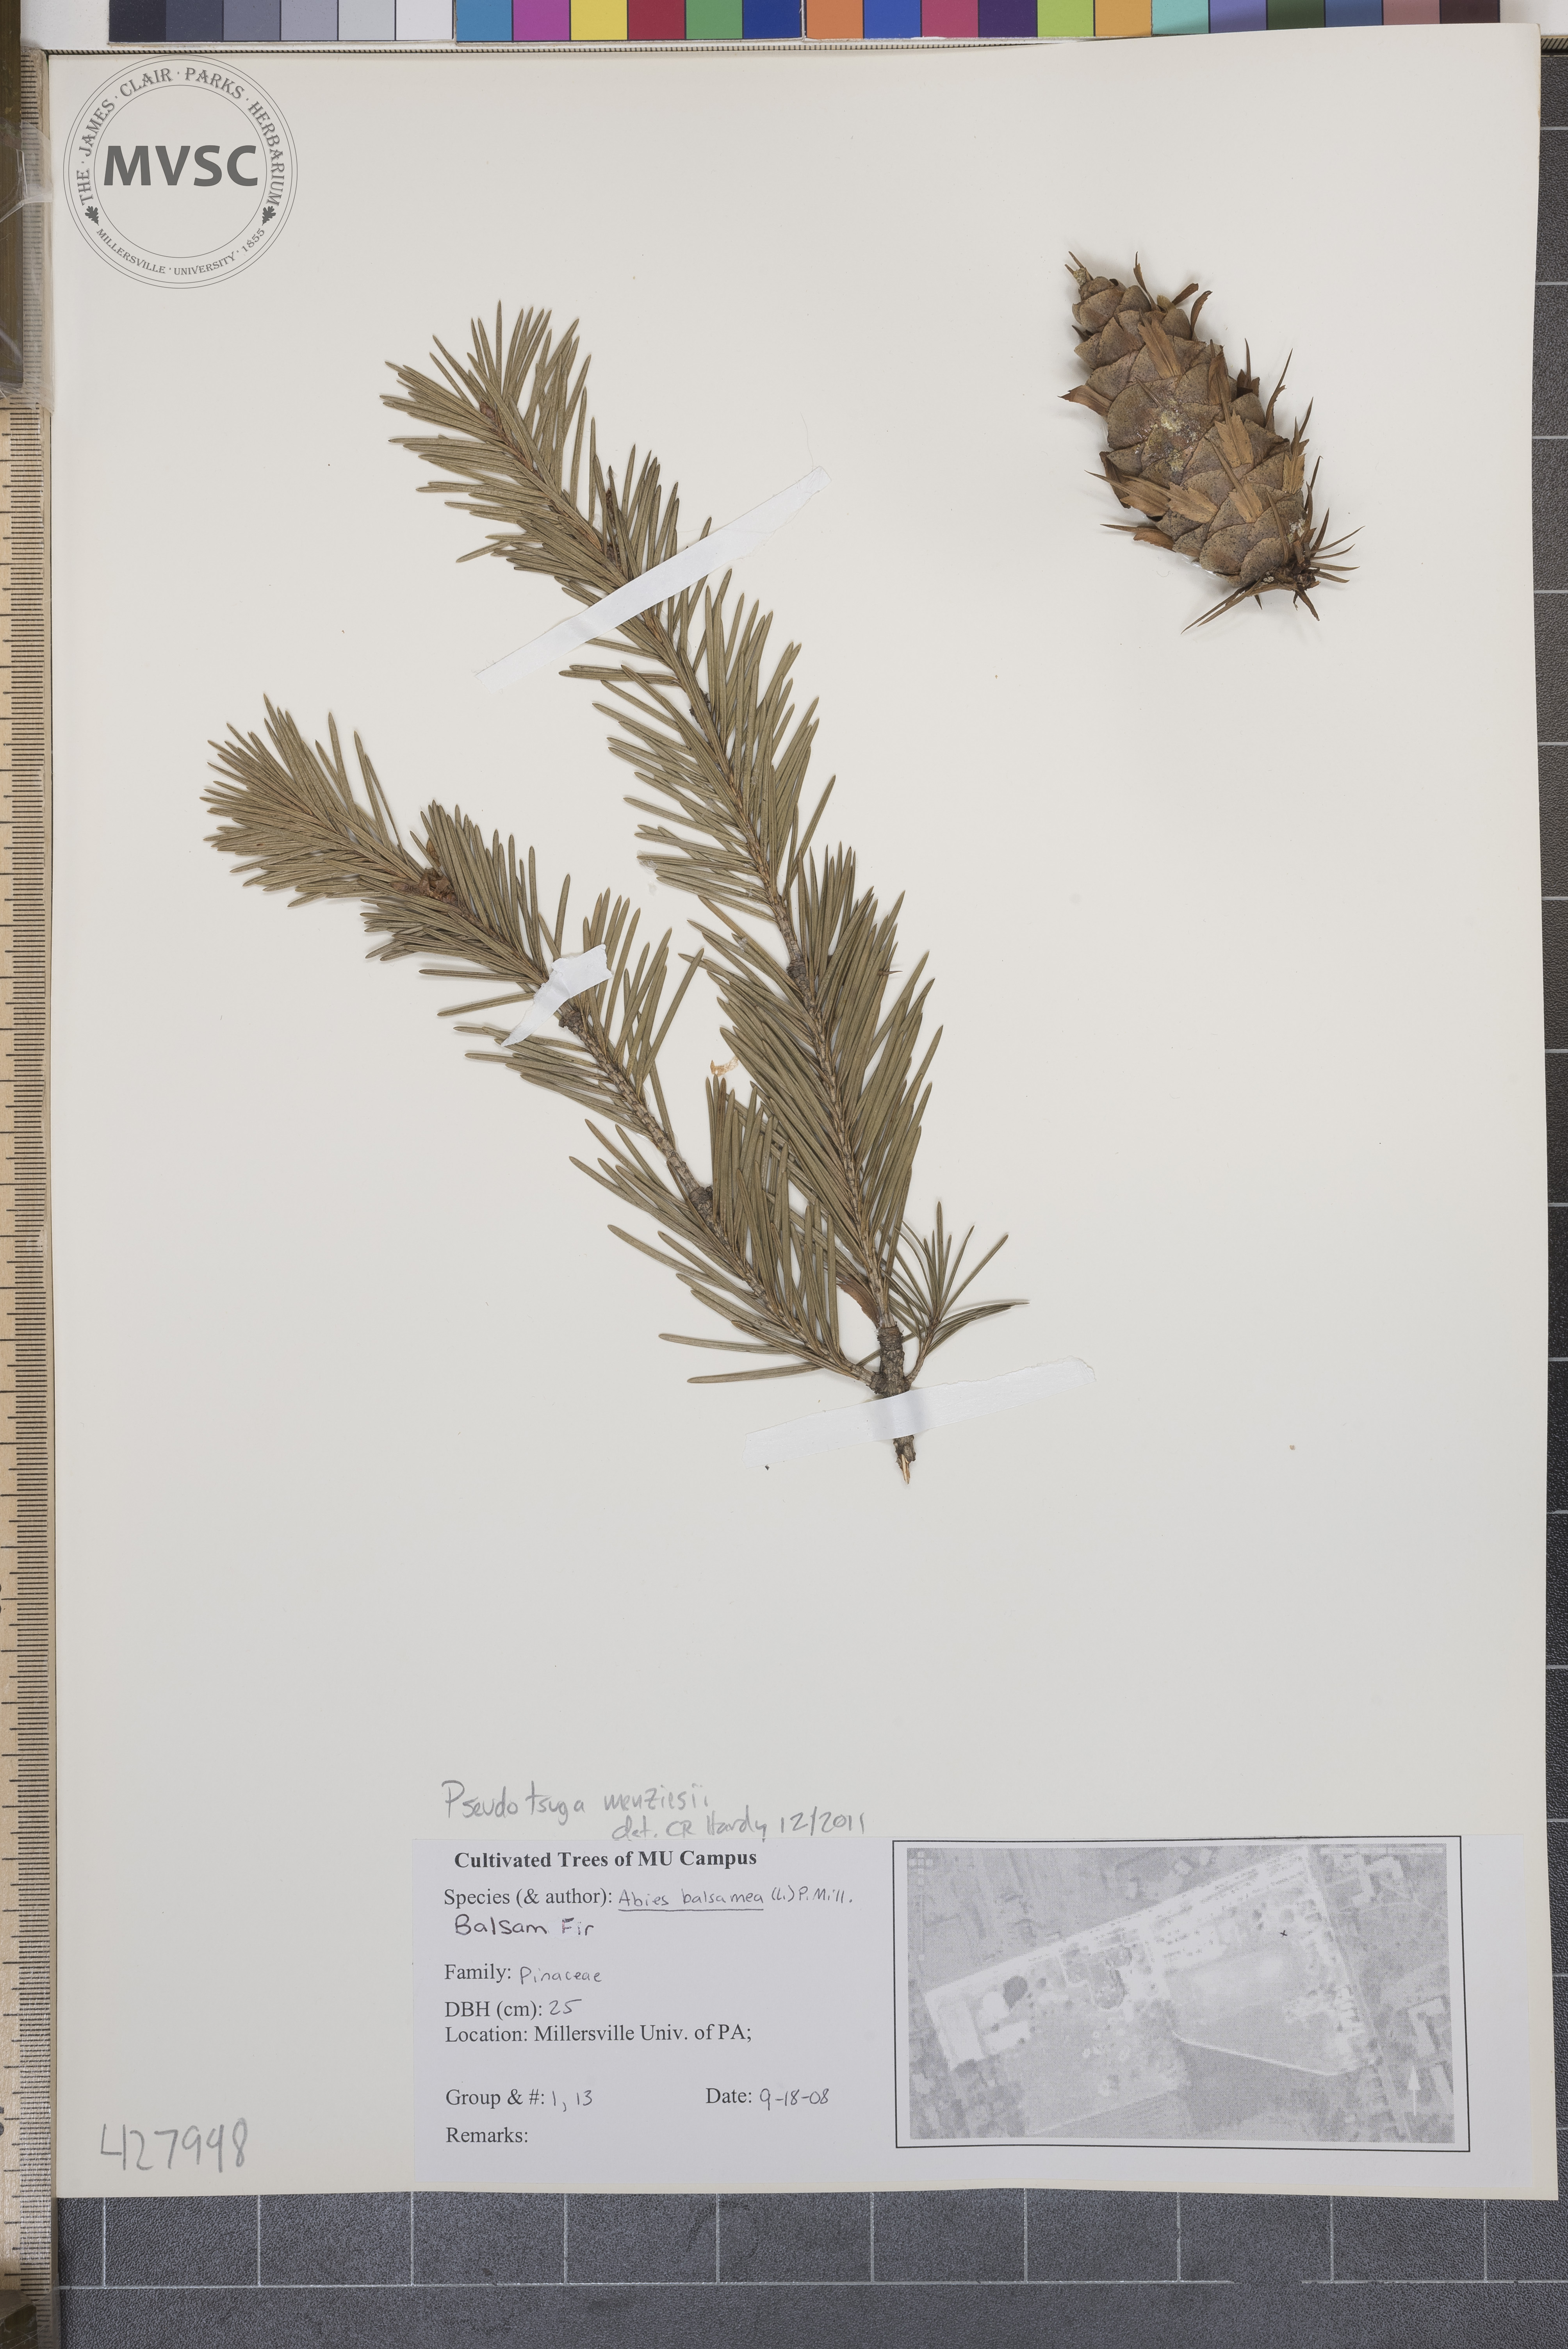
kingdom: Plantae
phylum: Tracheophyta
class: Pinopsida
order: Pinales
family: Pinaceae
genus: Pseudotsuga
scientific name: Pseudotsuga menziesii
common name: Douglas fir
